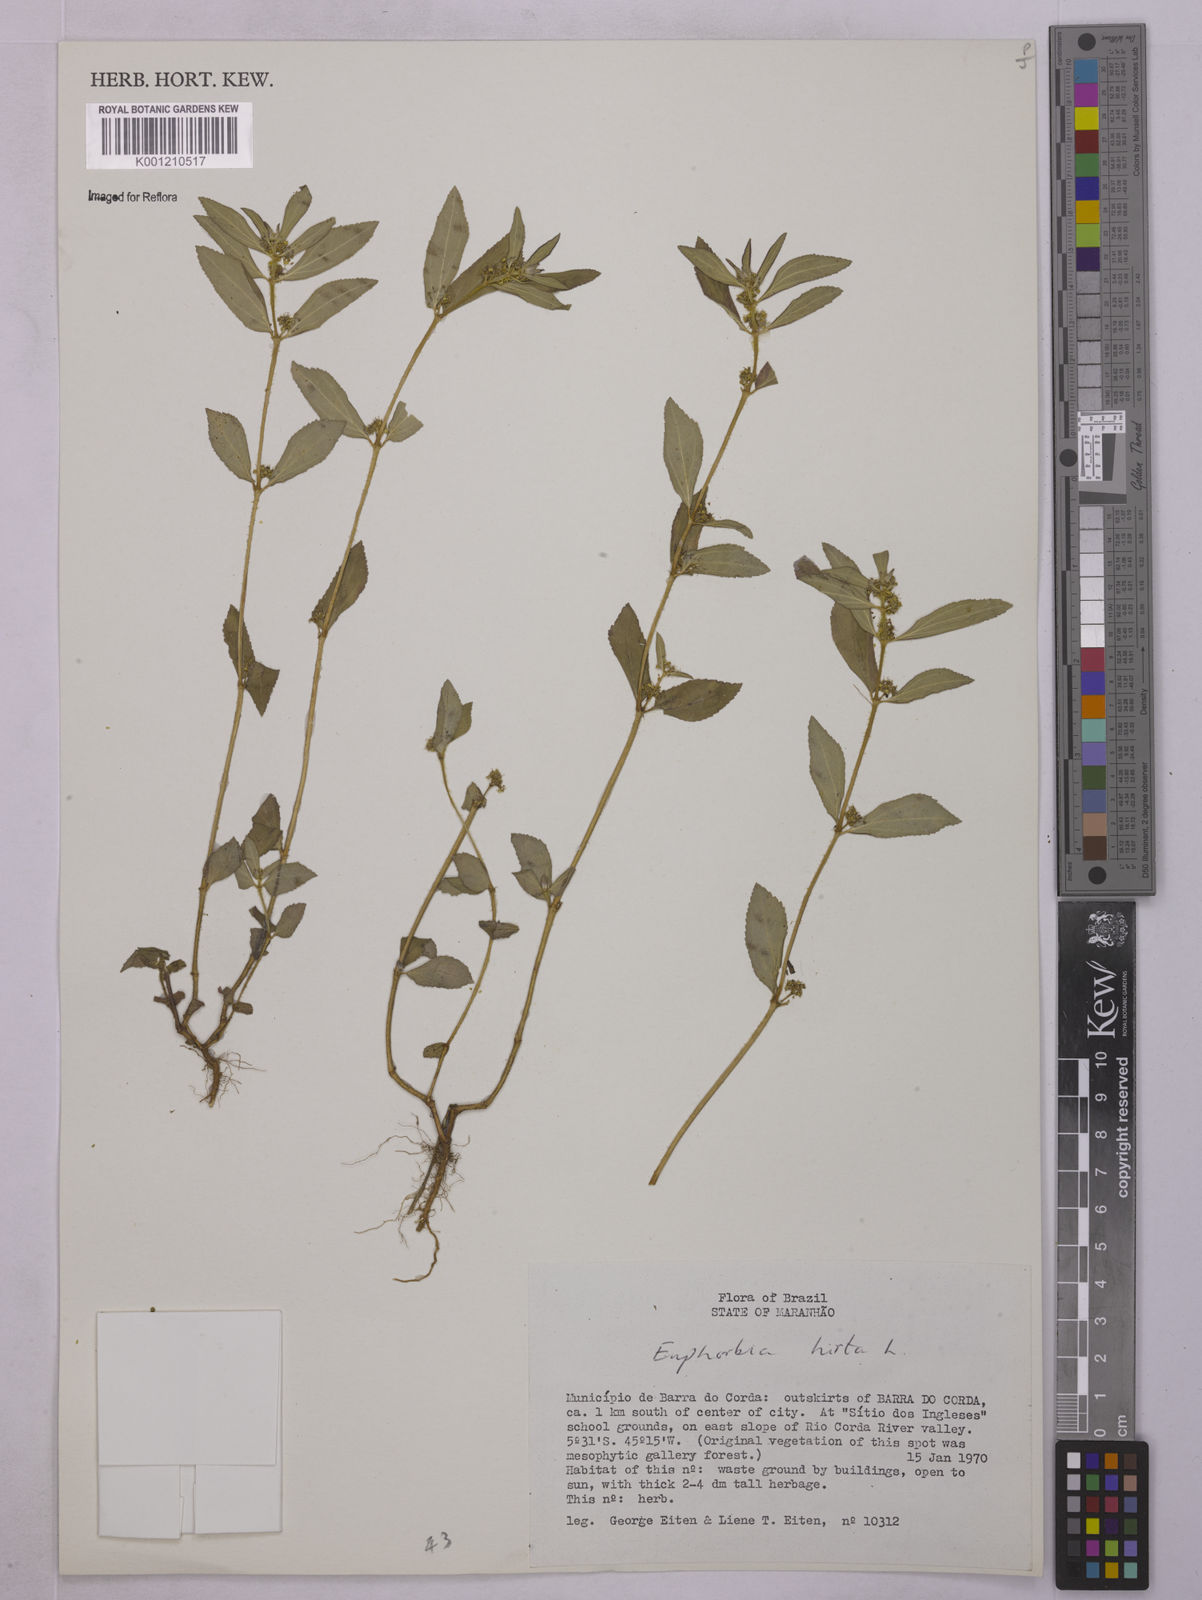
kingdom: Plantae
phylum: Tracheophyta
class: Magnoliopsida
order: Malpighiales
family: Euphorbiaceae
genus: Euphorbia
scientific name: Euphorbia hirta
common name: Pillpod sandmat
